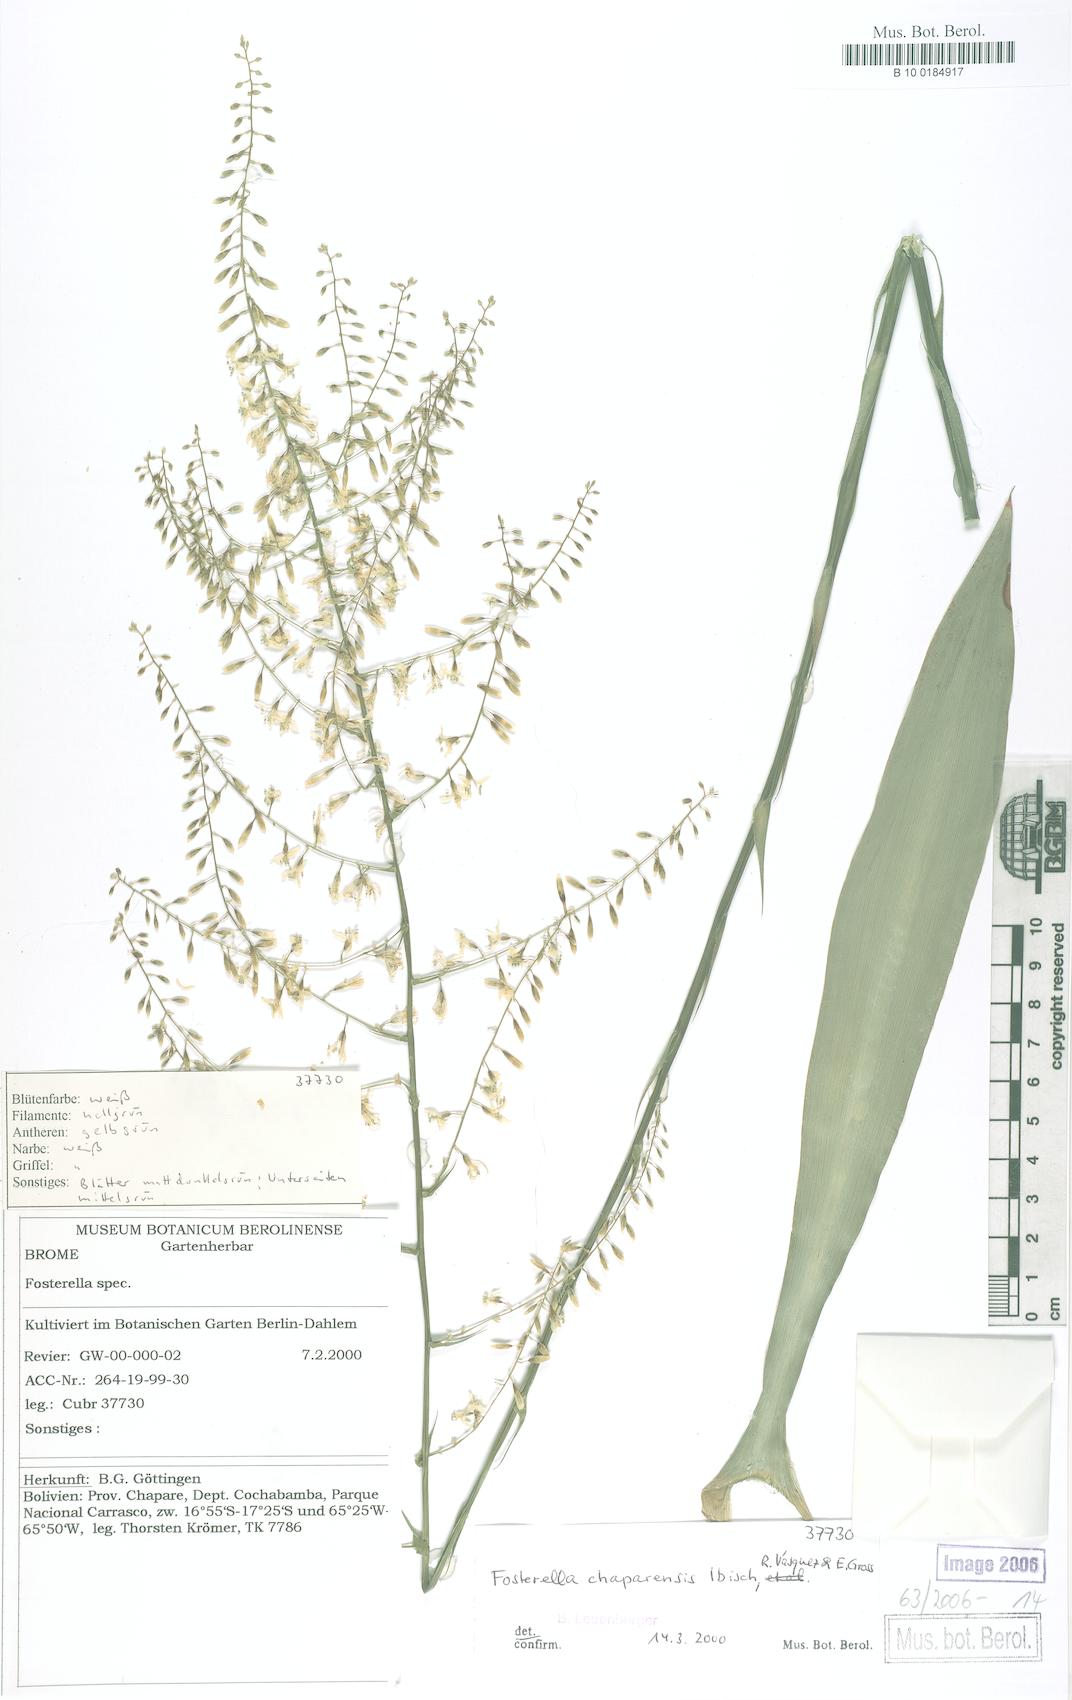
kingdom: Plantae
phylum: Tracheophyta
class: Liliopsida
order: Poales
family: Bromeliaceae
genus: Fosterella
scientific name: Fosterella chaparensis
